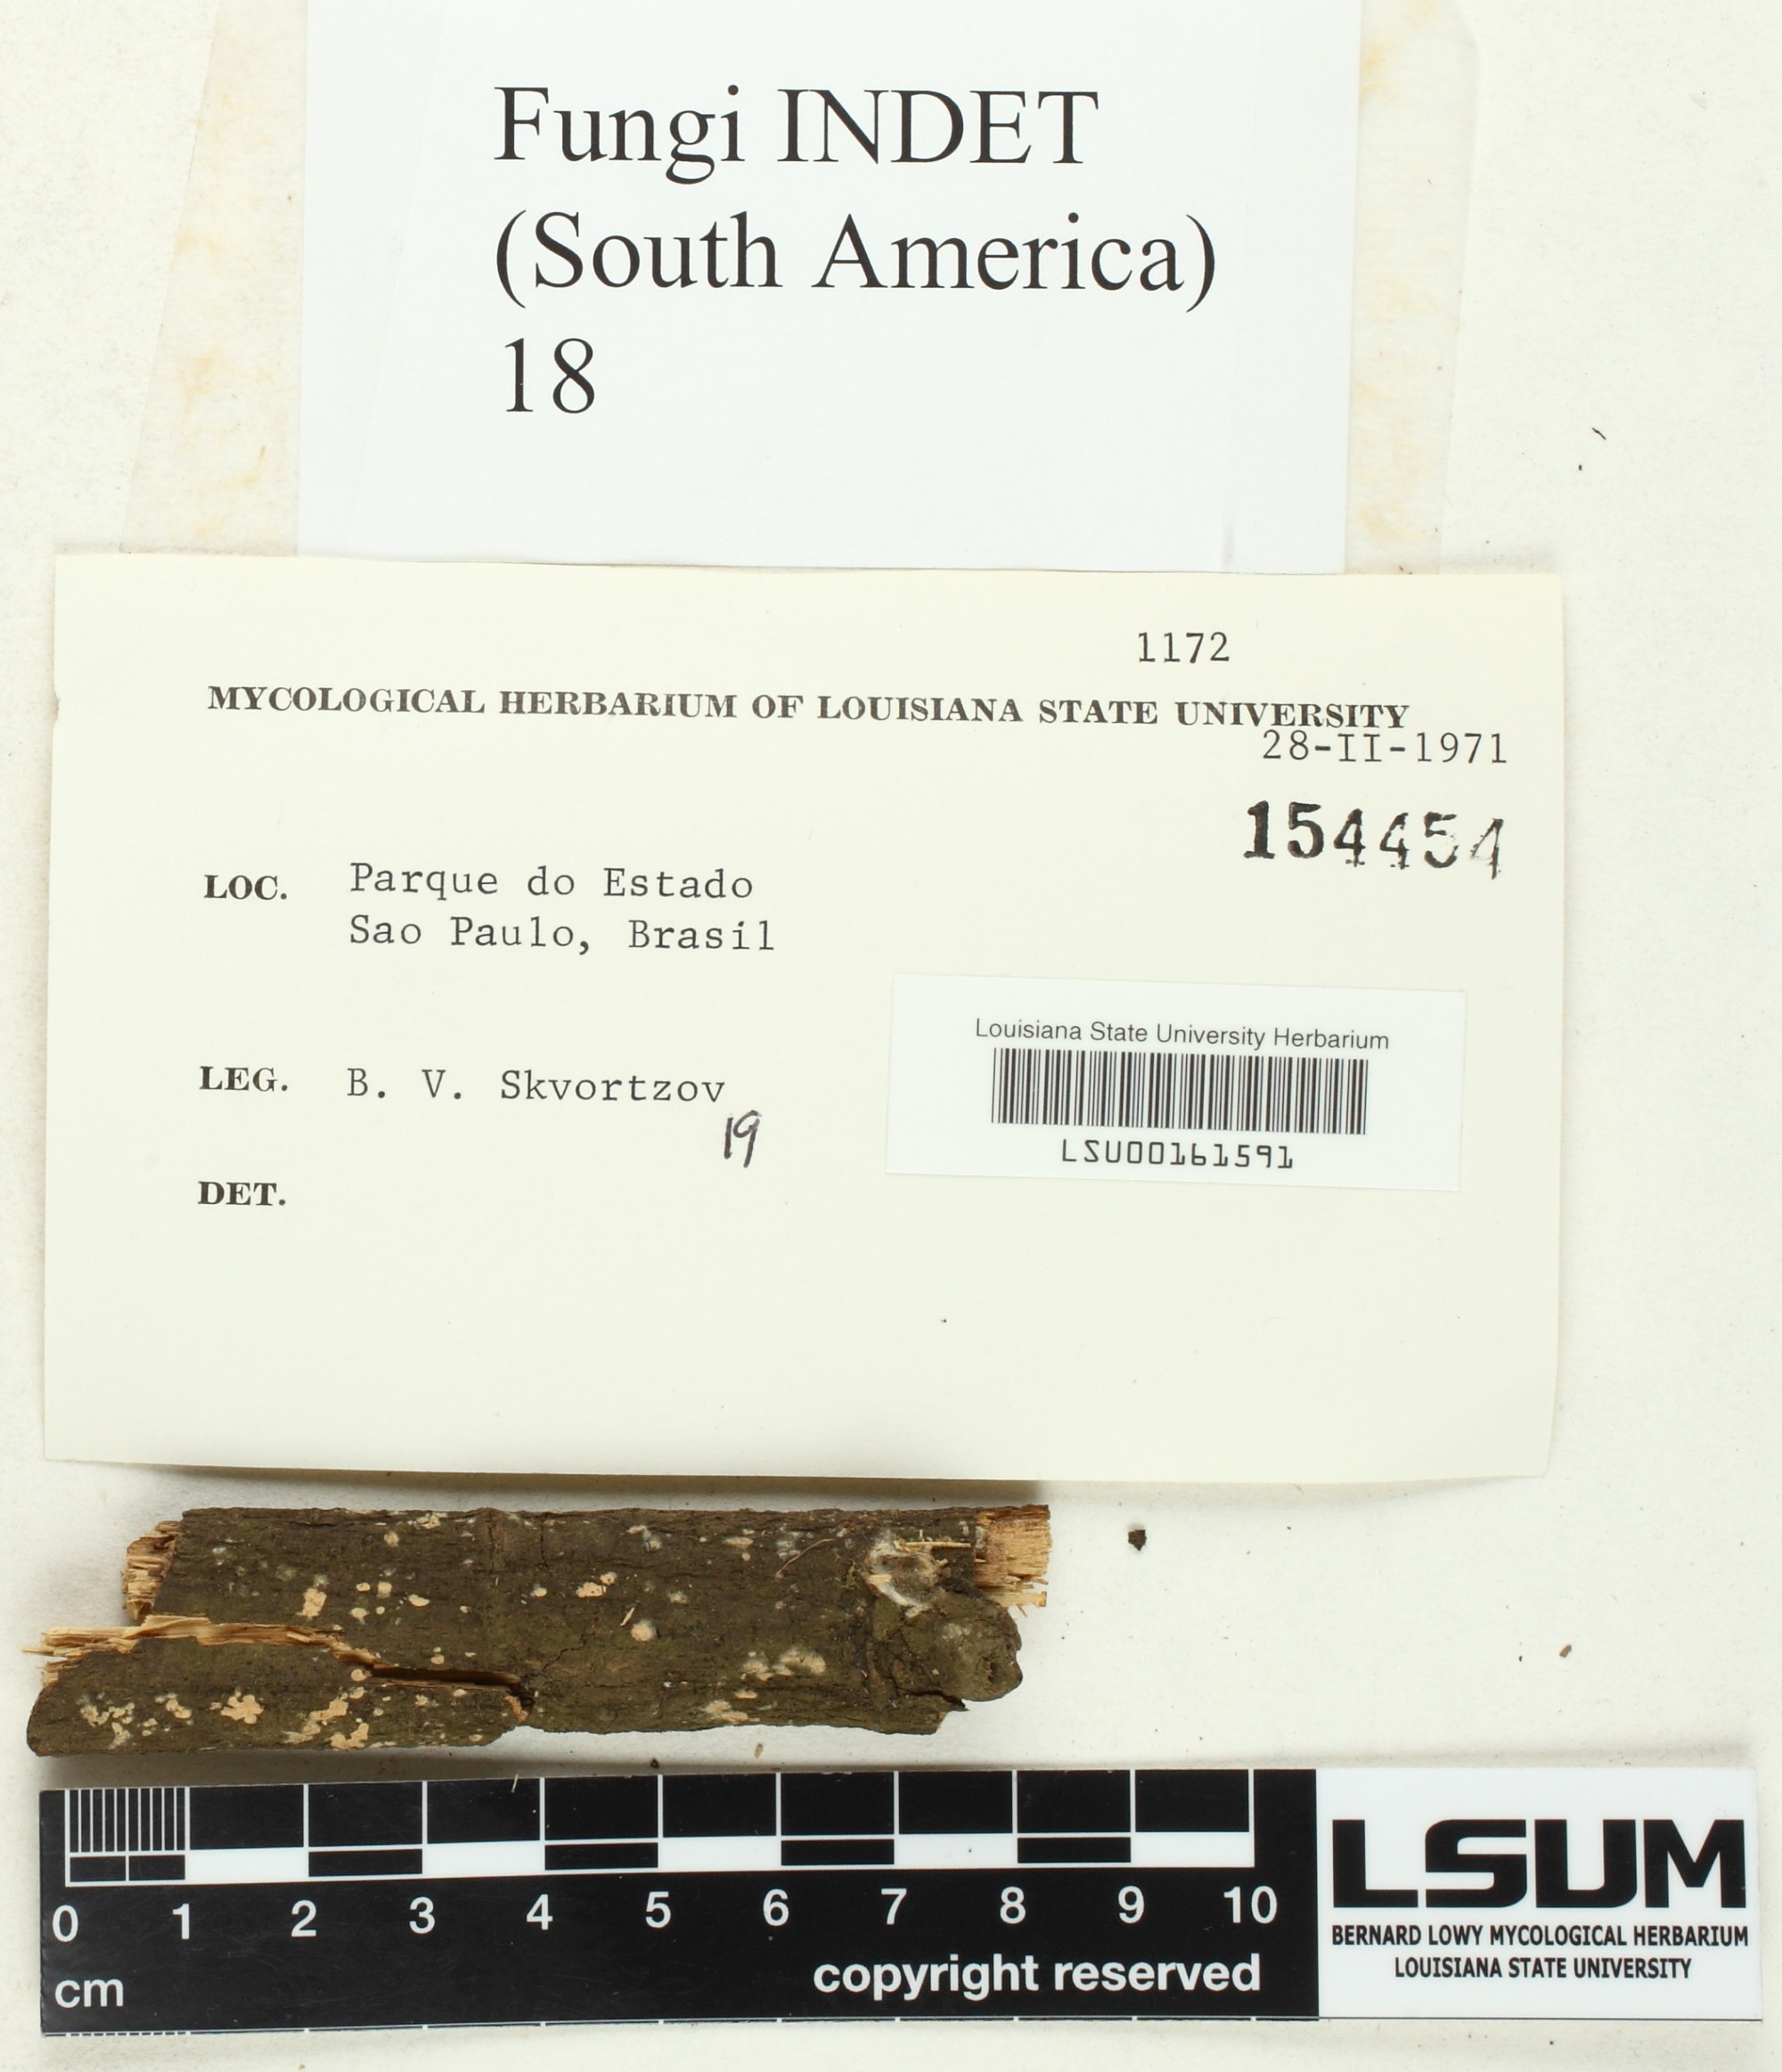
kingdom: Fungi
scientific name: Fungi
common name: Fungi
